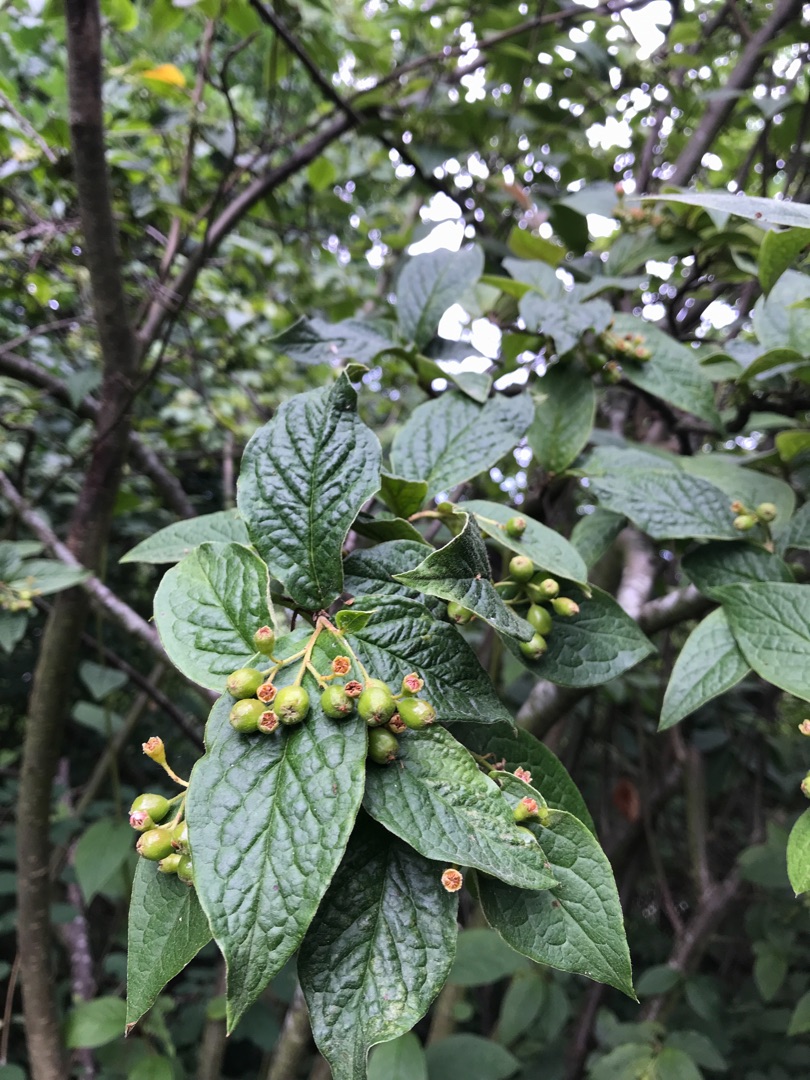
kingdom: Plantae
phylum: Tracheophyta
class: Magnoliopsida
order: Rosales
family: Rosaceae
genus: Cotoneaster
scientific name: Cotoneaster bullatus
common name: Buklet dværgmispel
